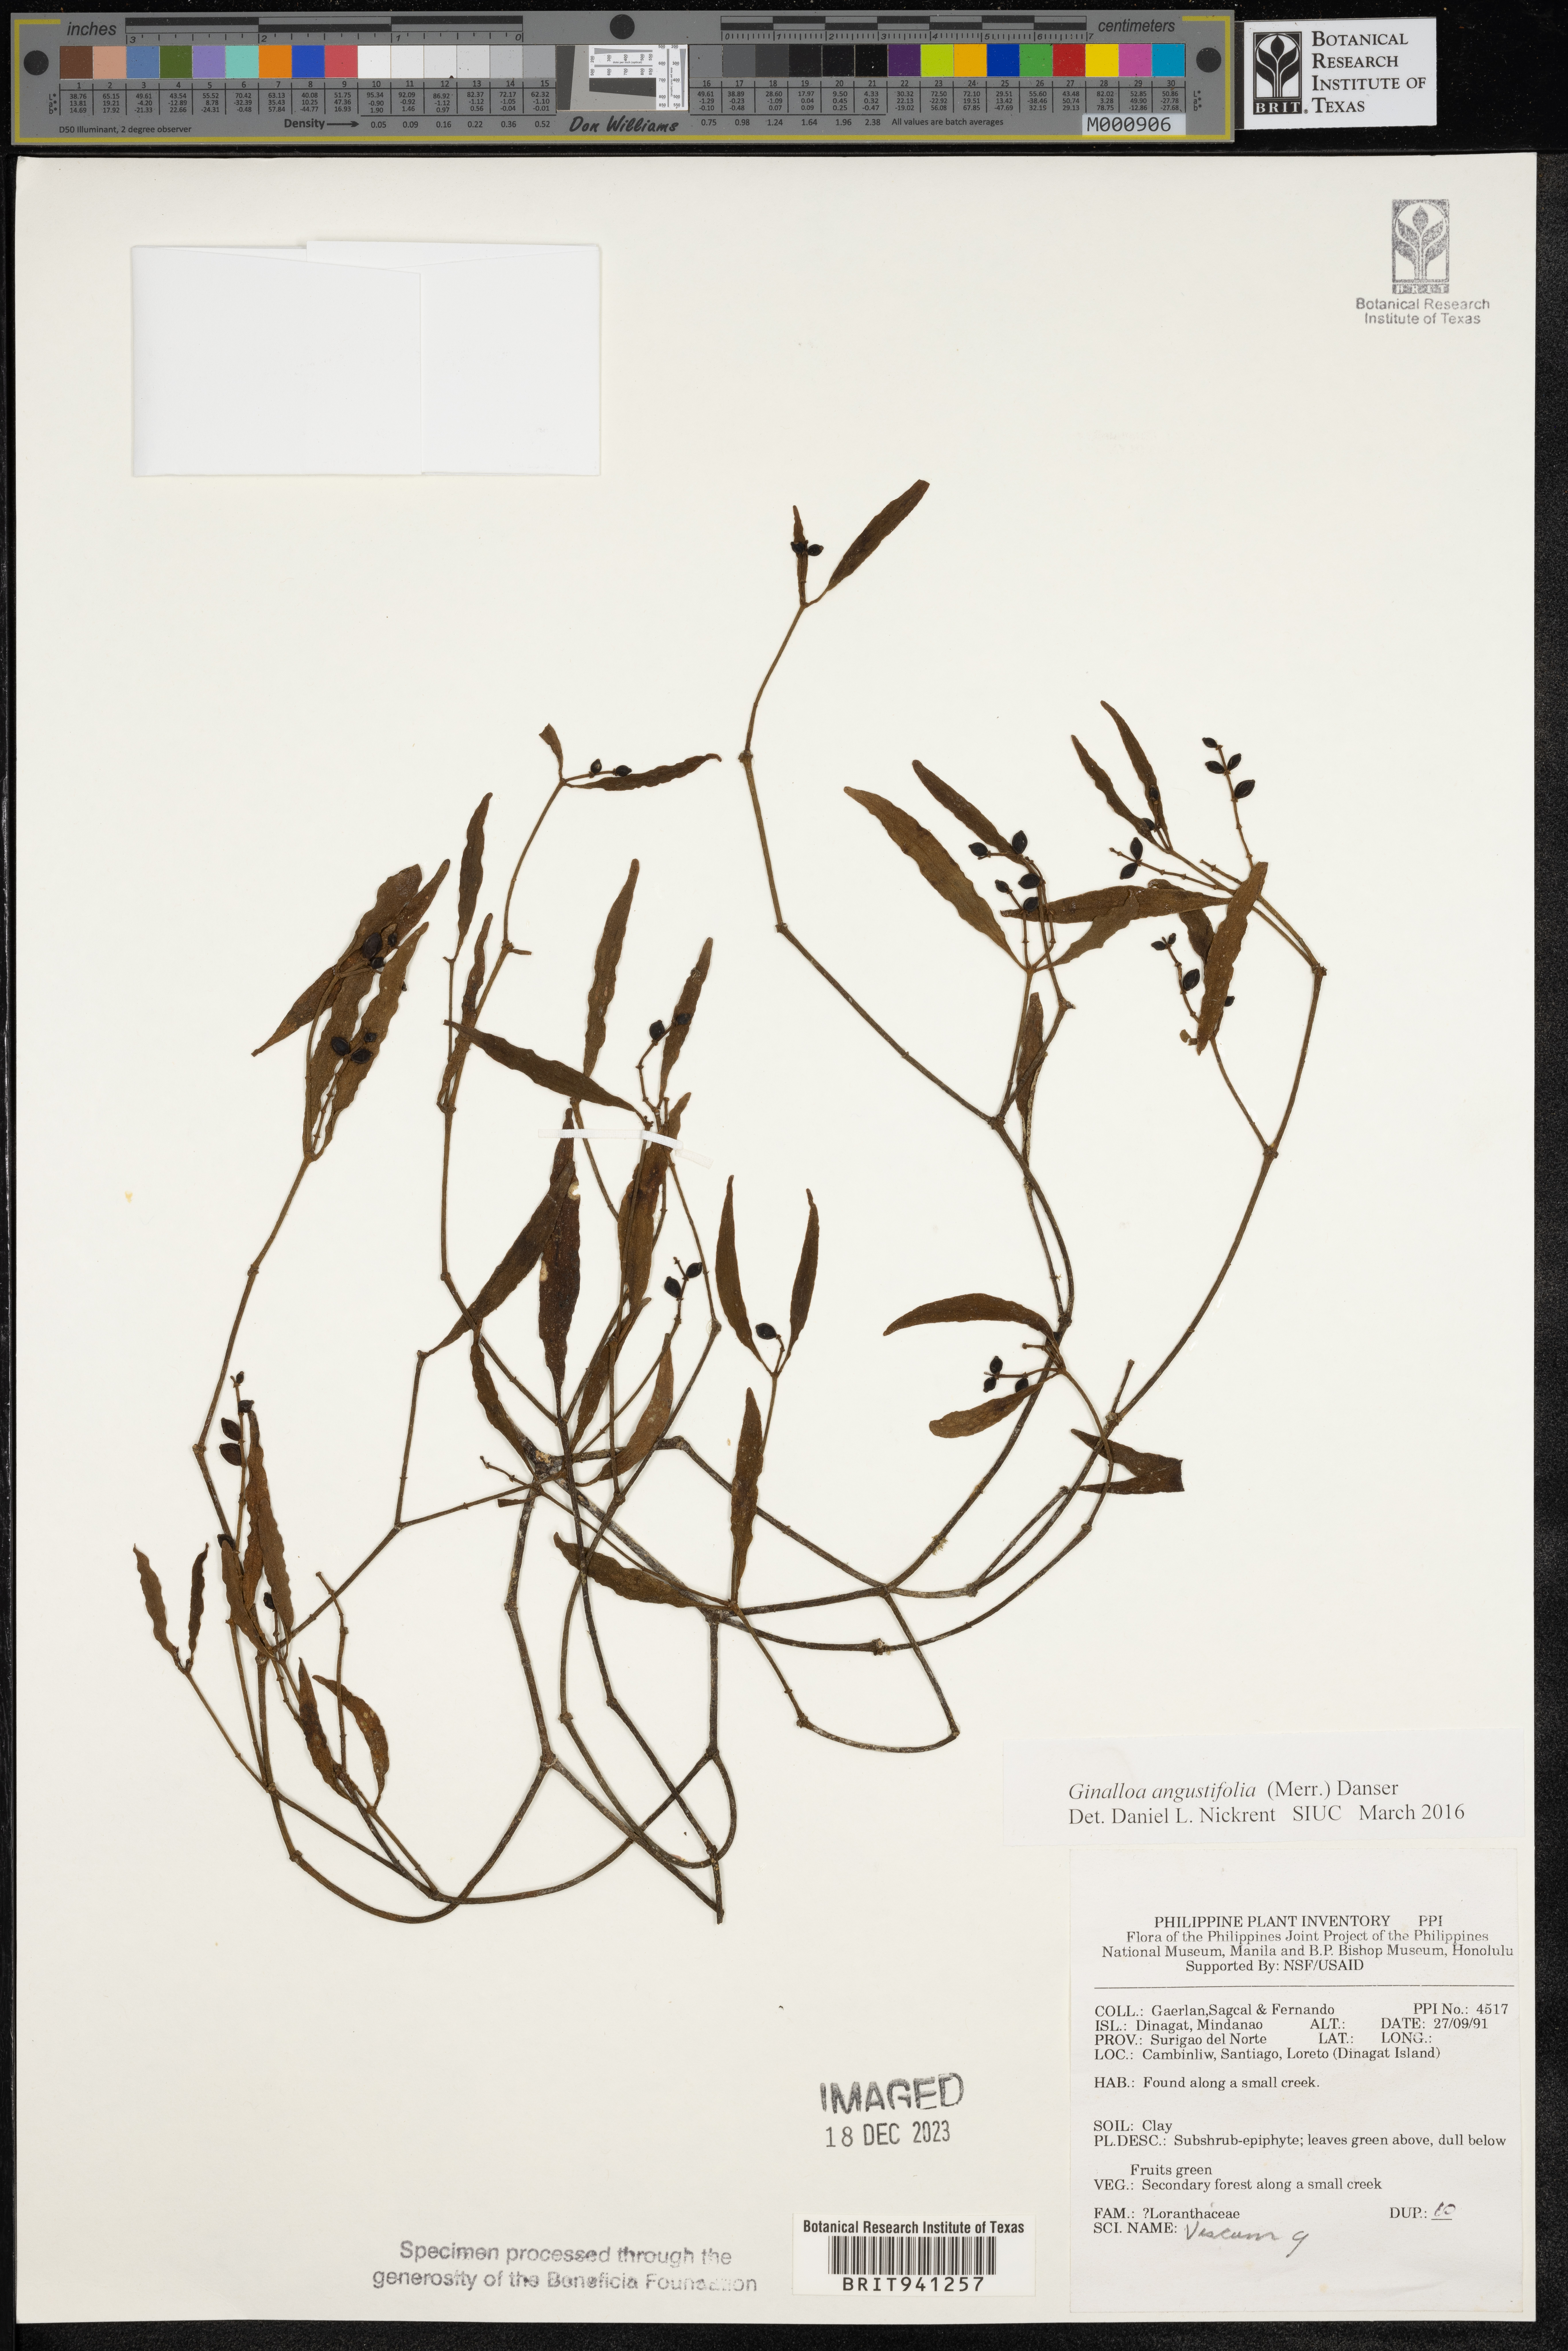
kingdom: Plantae
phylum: Tracheophyta
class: Magnoliopsida
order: Santalales
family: Viscaceae
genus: Ginalloa
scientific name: Ginalloa
